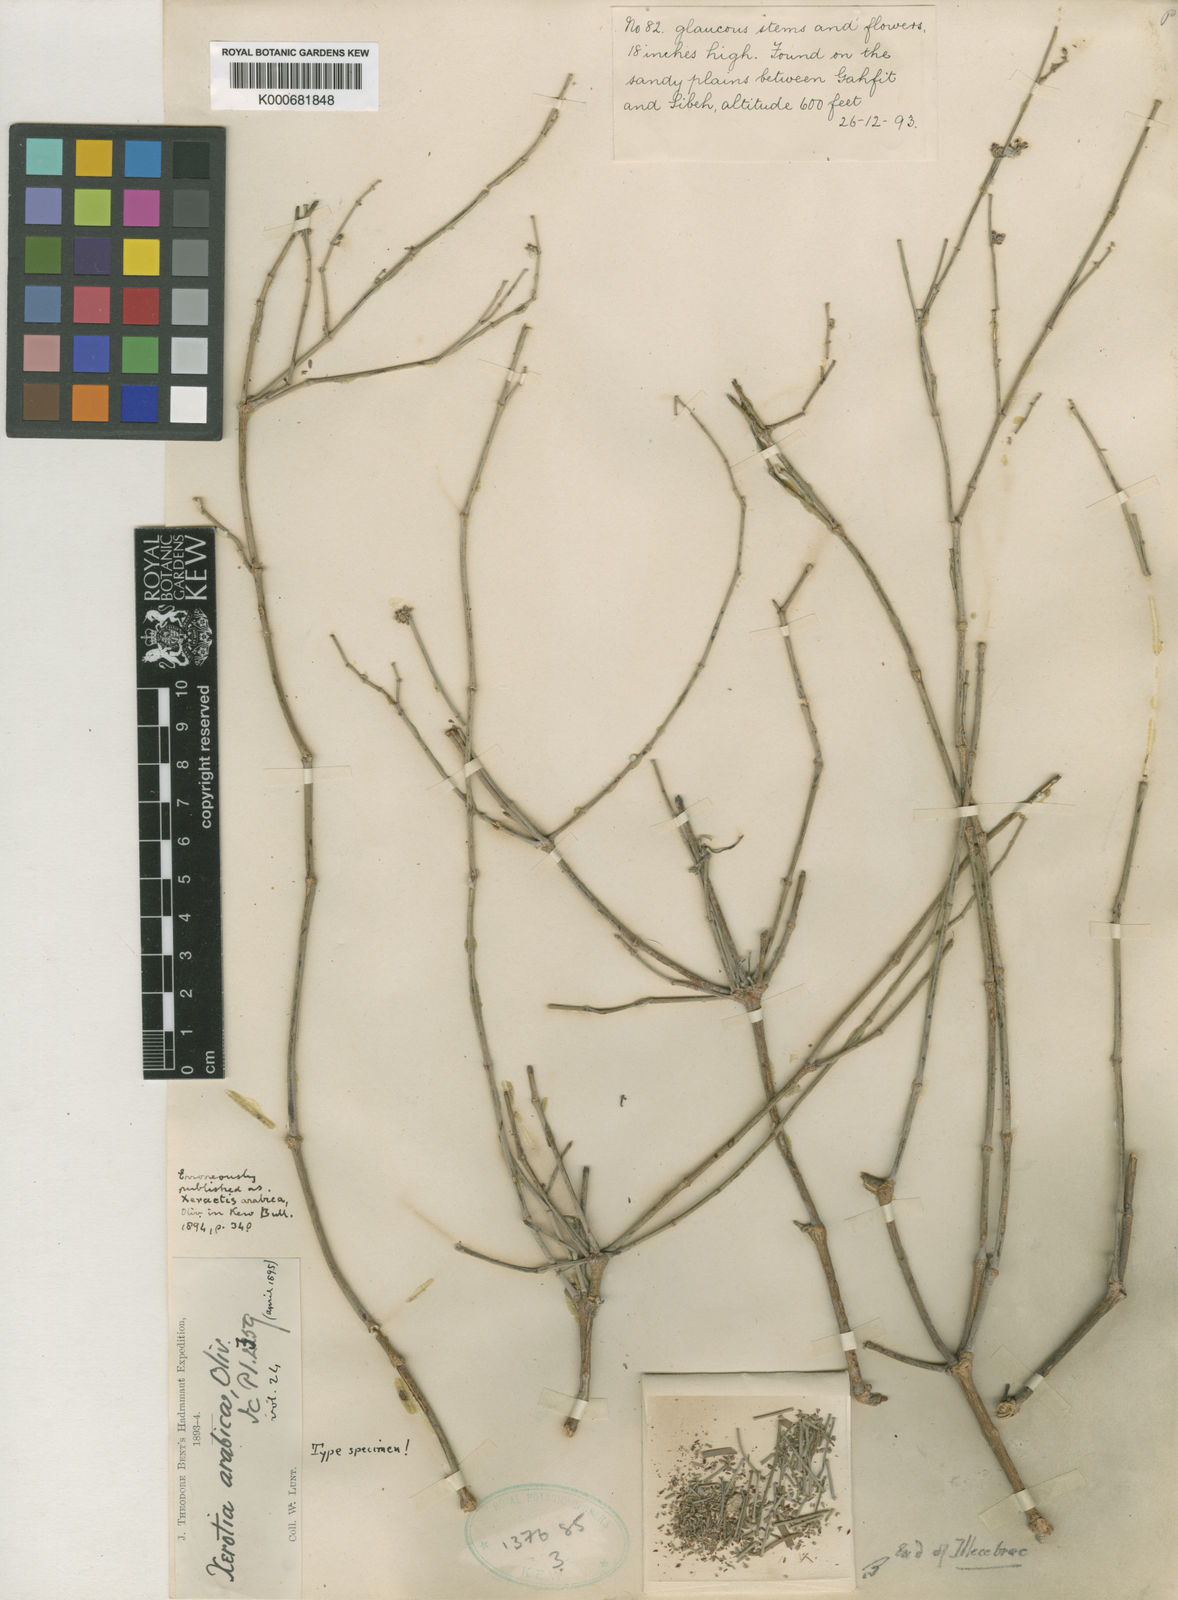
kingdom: Plantae
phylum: Tracheophyta
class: Magnoliopsida
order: Caryophyllales
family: Caryophyllaceae
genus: Xerotia
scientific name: Xerotia arabica
